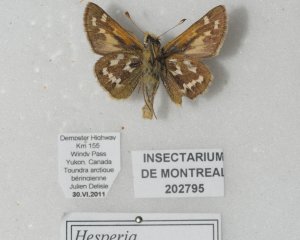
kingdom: Animalia
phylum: Arthropoda
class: Insecta
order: Lepidoptera
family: Hesperiidae
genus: Hesperia
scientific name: Hesperia comma
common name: Common Branded Skipper
